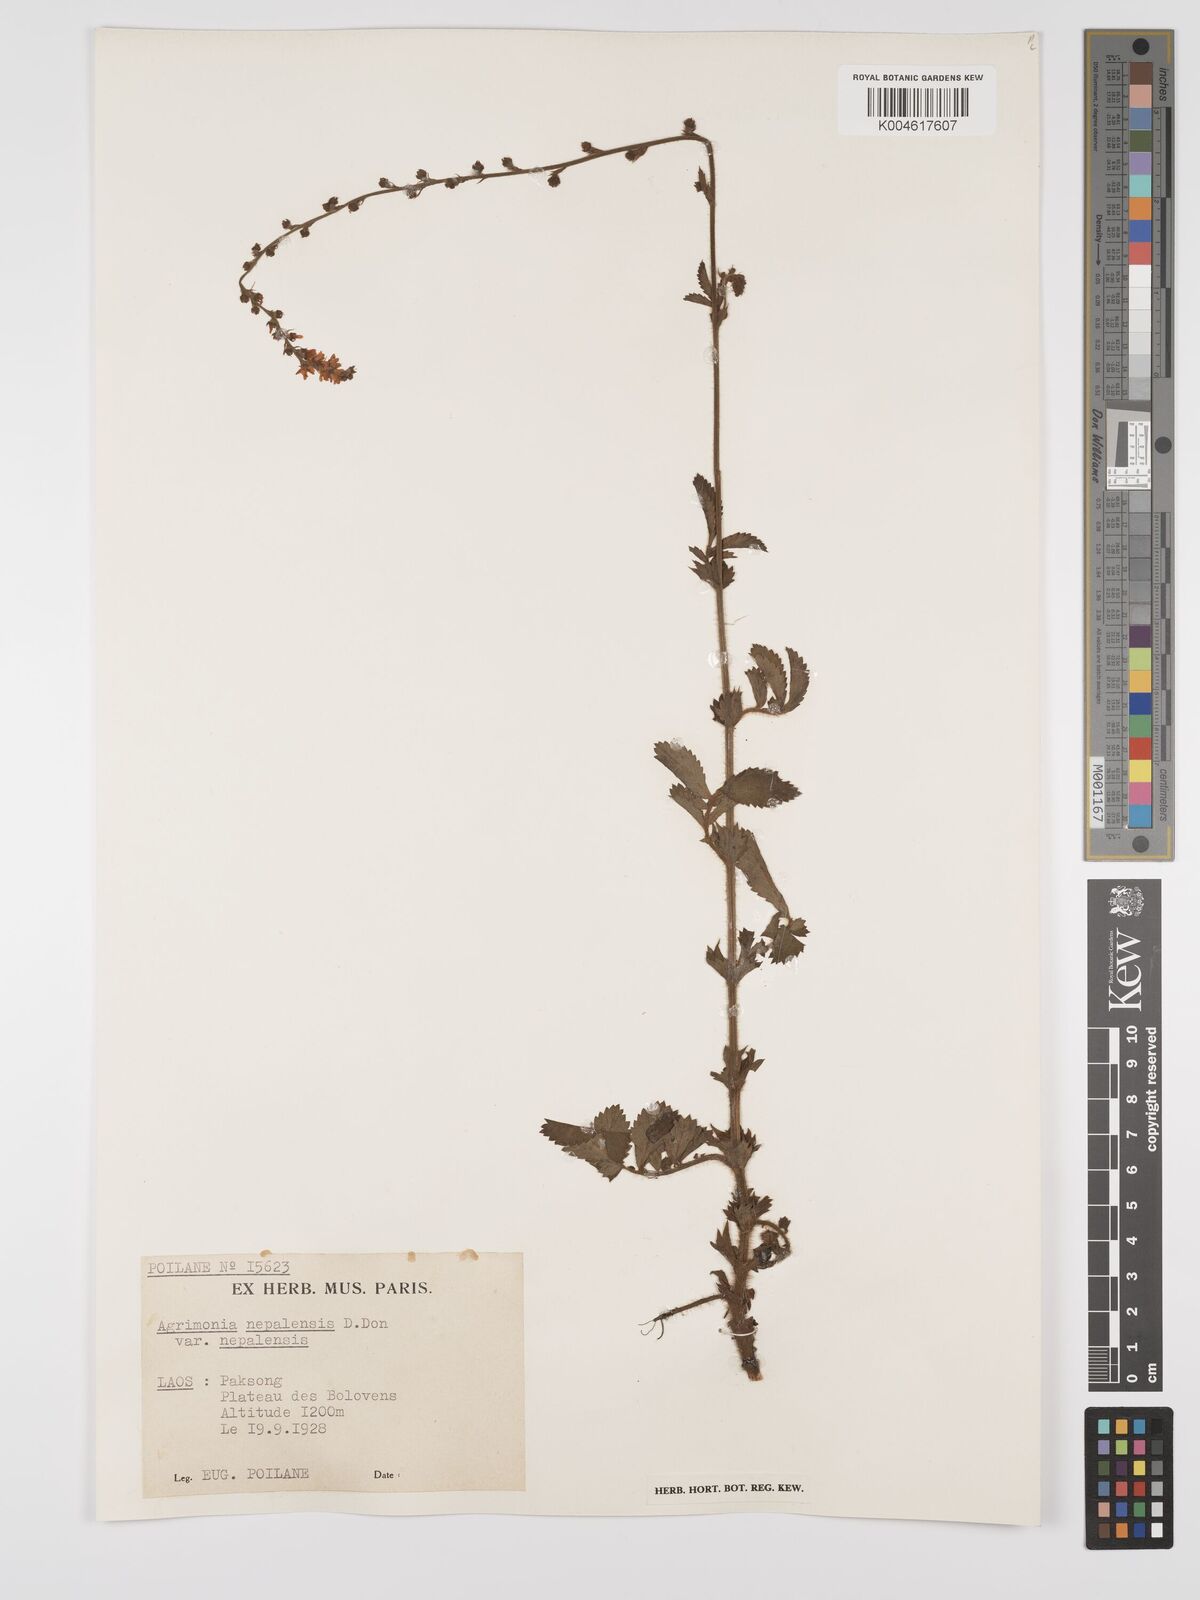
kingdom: Plantae
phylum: Tracheophyta
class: Magnoliopsida
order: Rosales
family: Rosaceae
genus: Agrimonia
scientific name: Agrimonia pilosa
